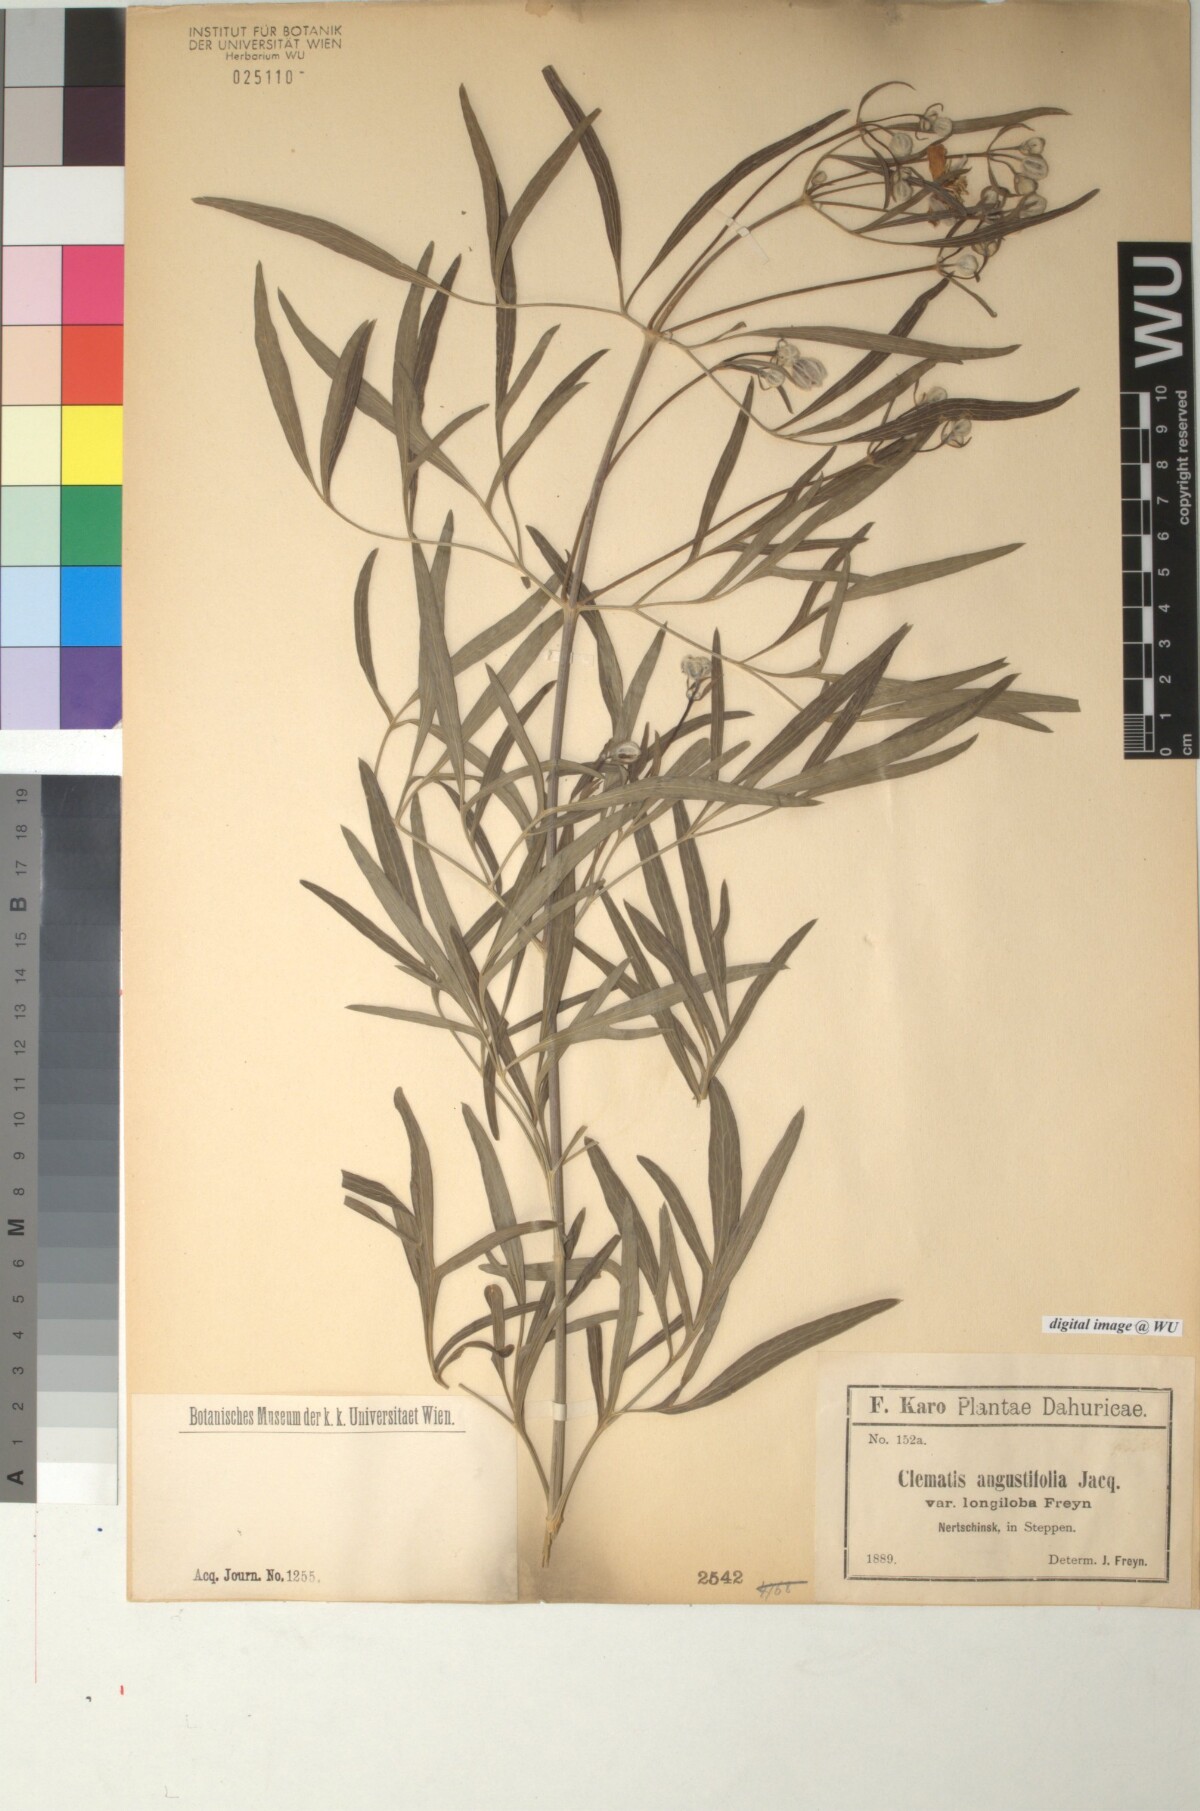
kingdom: Plantae
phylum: Tracheophyta
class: Magnoliopsida
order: Ranunculales
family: Ranunculaceae
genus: Clematis
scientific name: Clematis hexapetala
